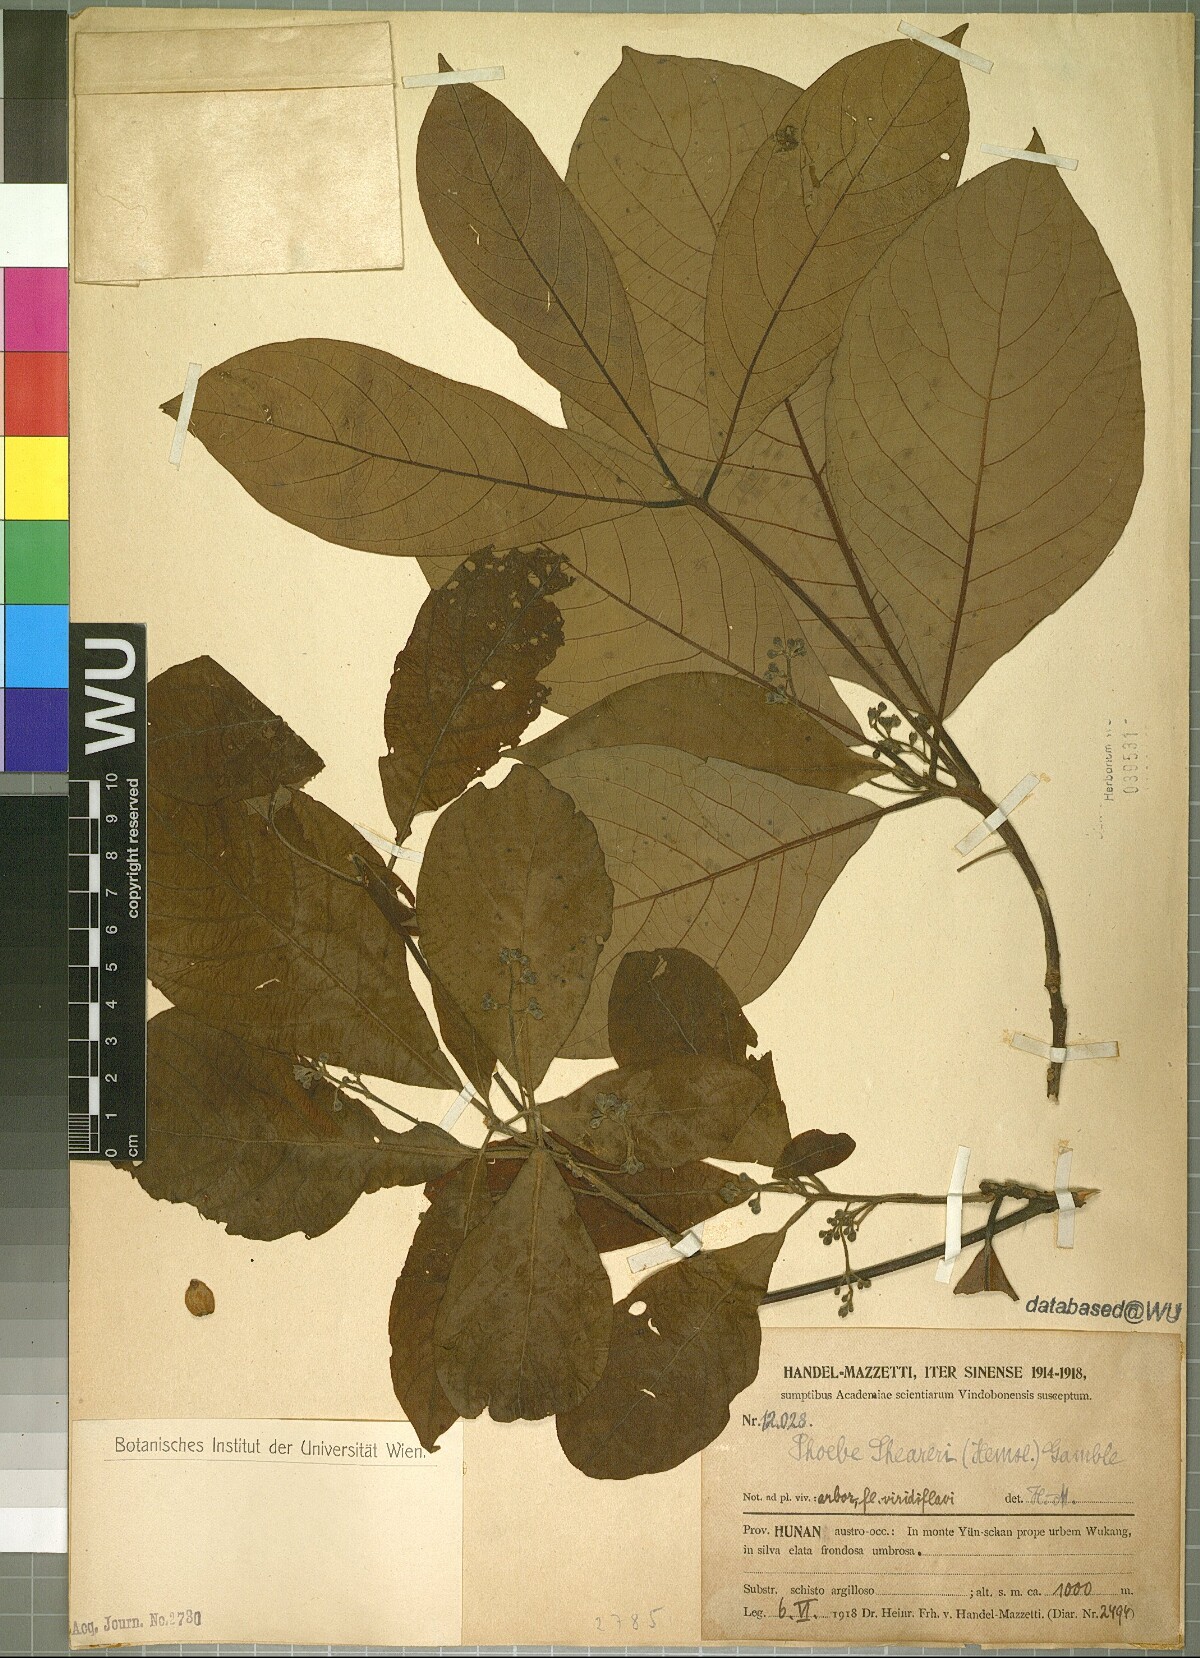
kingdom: Plantae
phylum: Tracheophyta
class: Magnoliopsida
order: Laurales
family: Lauraceae
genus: Phoebe
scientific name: Phoebe sheareri
